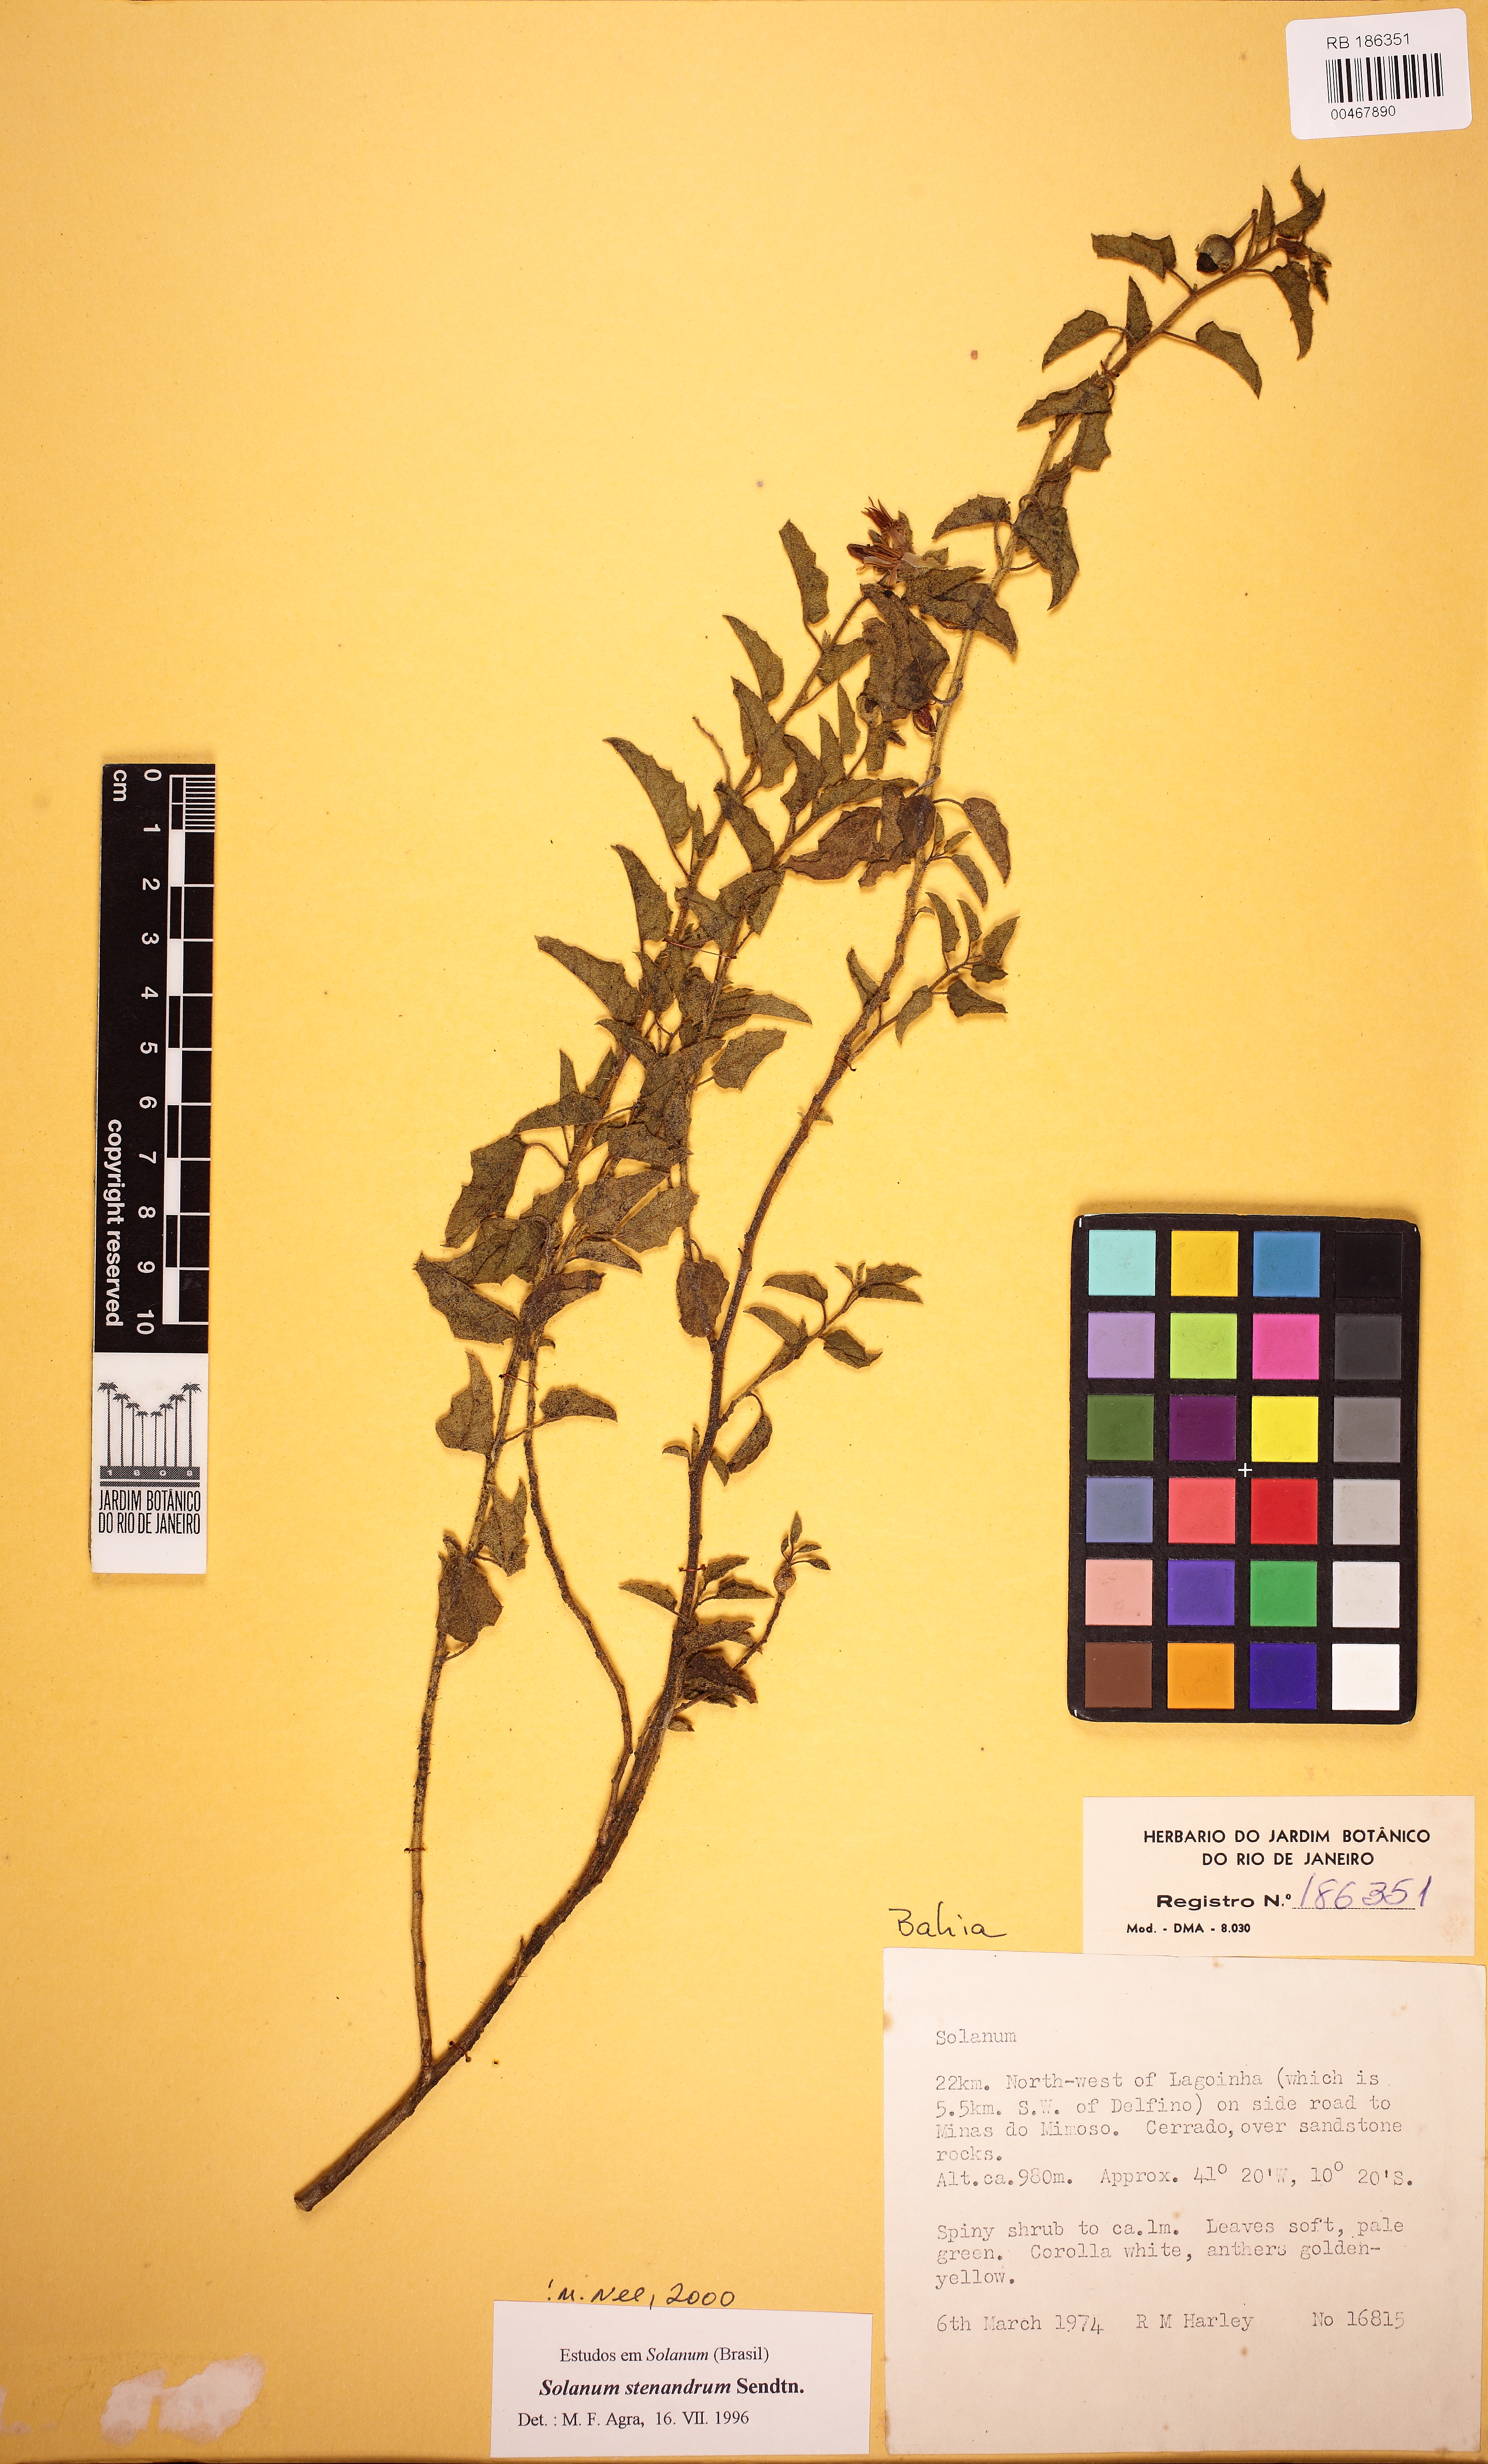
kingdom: Plantae
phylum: Tracheophyta
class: Magnoliopsida
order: Solanales
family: Solanaceae
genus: Solanum
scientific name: Solanum stenandrum
